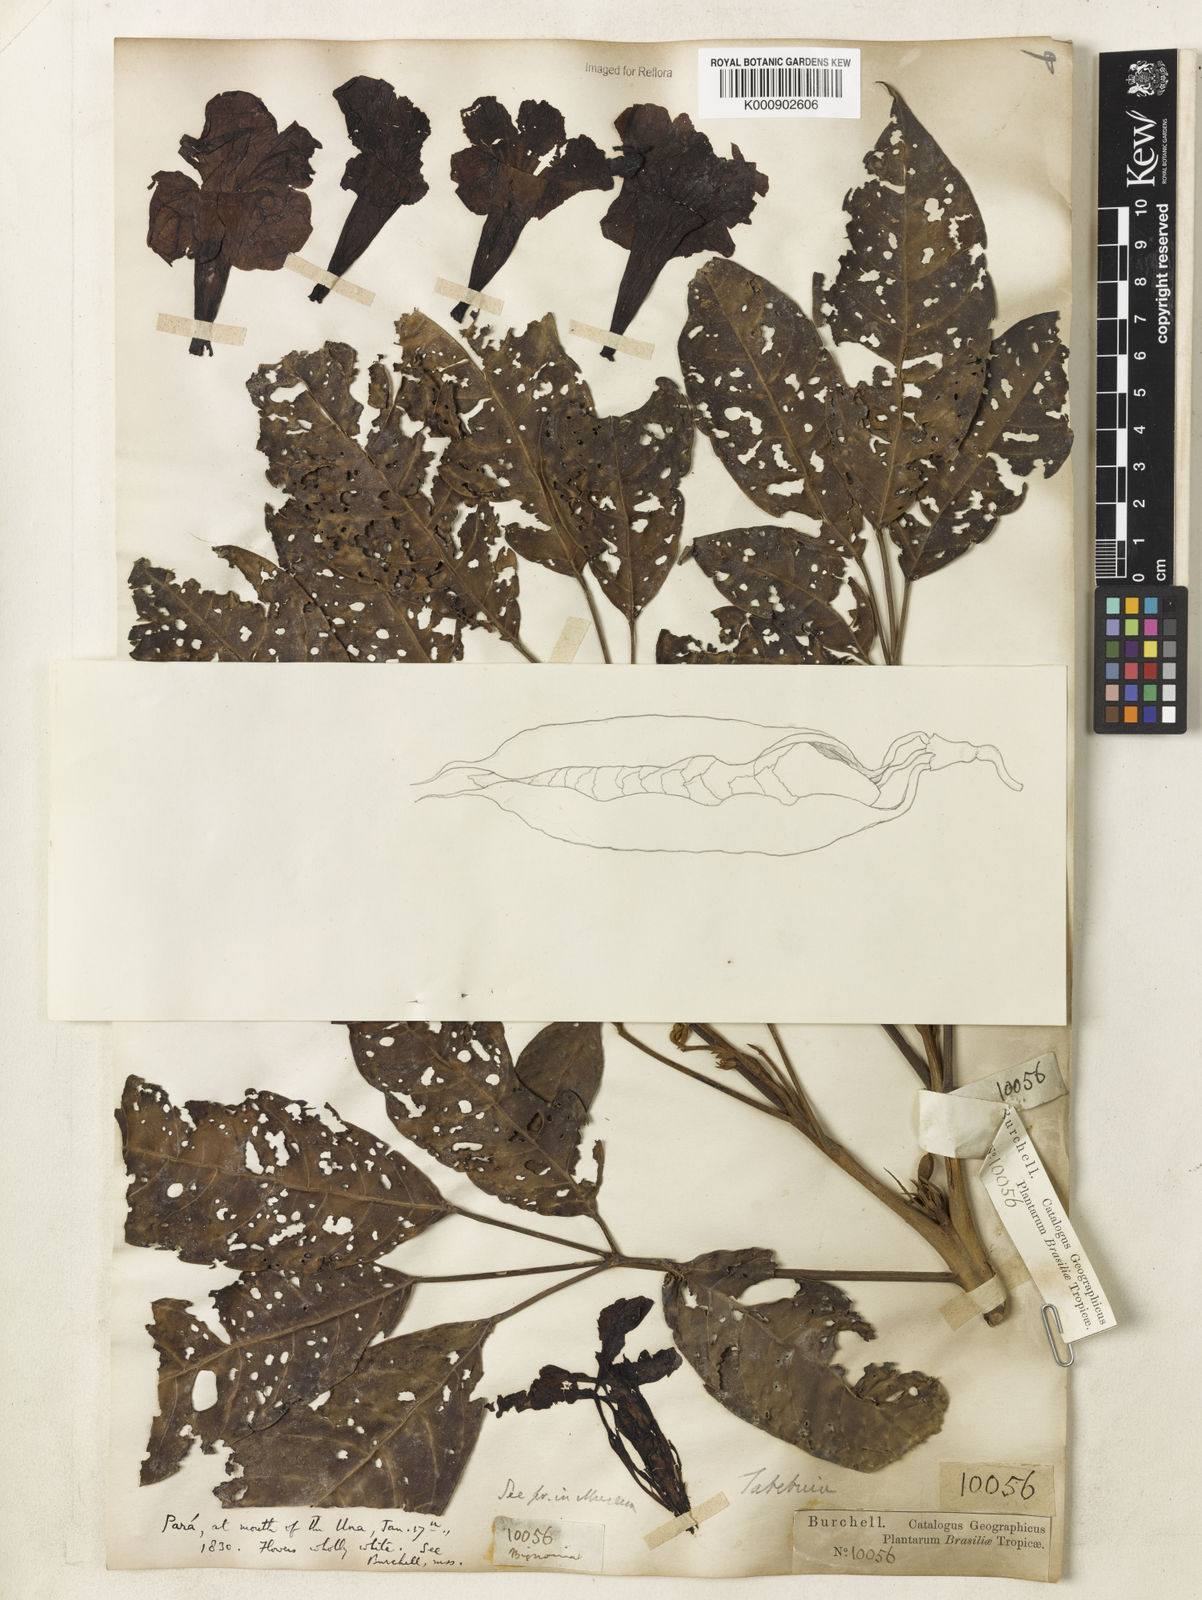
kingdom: Plantae
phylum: Tracheophyta
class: Magnoliopsida
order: Lamiales
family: Bignoniaceae
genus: Tabebuia
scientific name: Tabebuia fluviatilis
